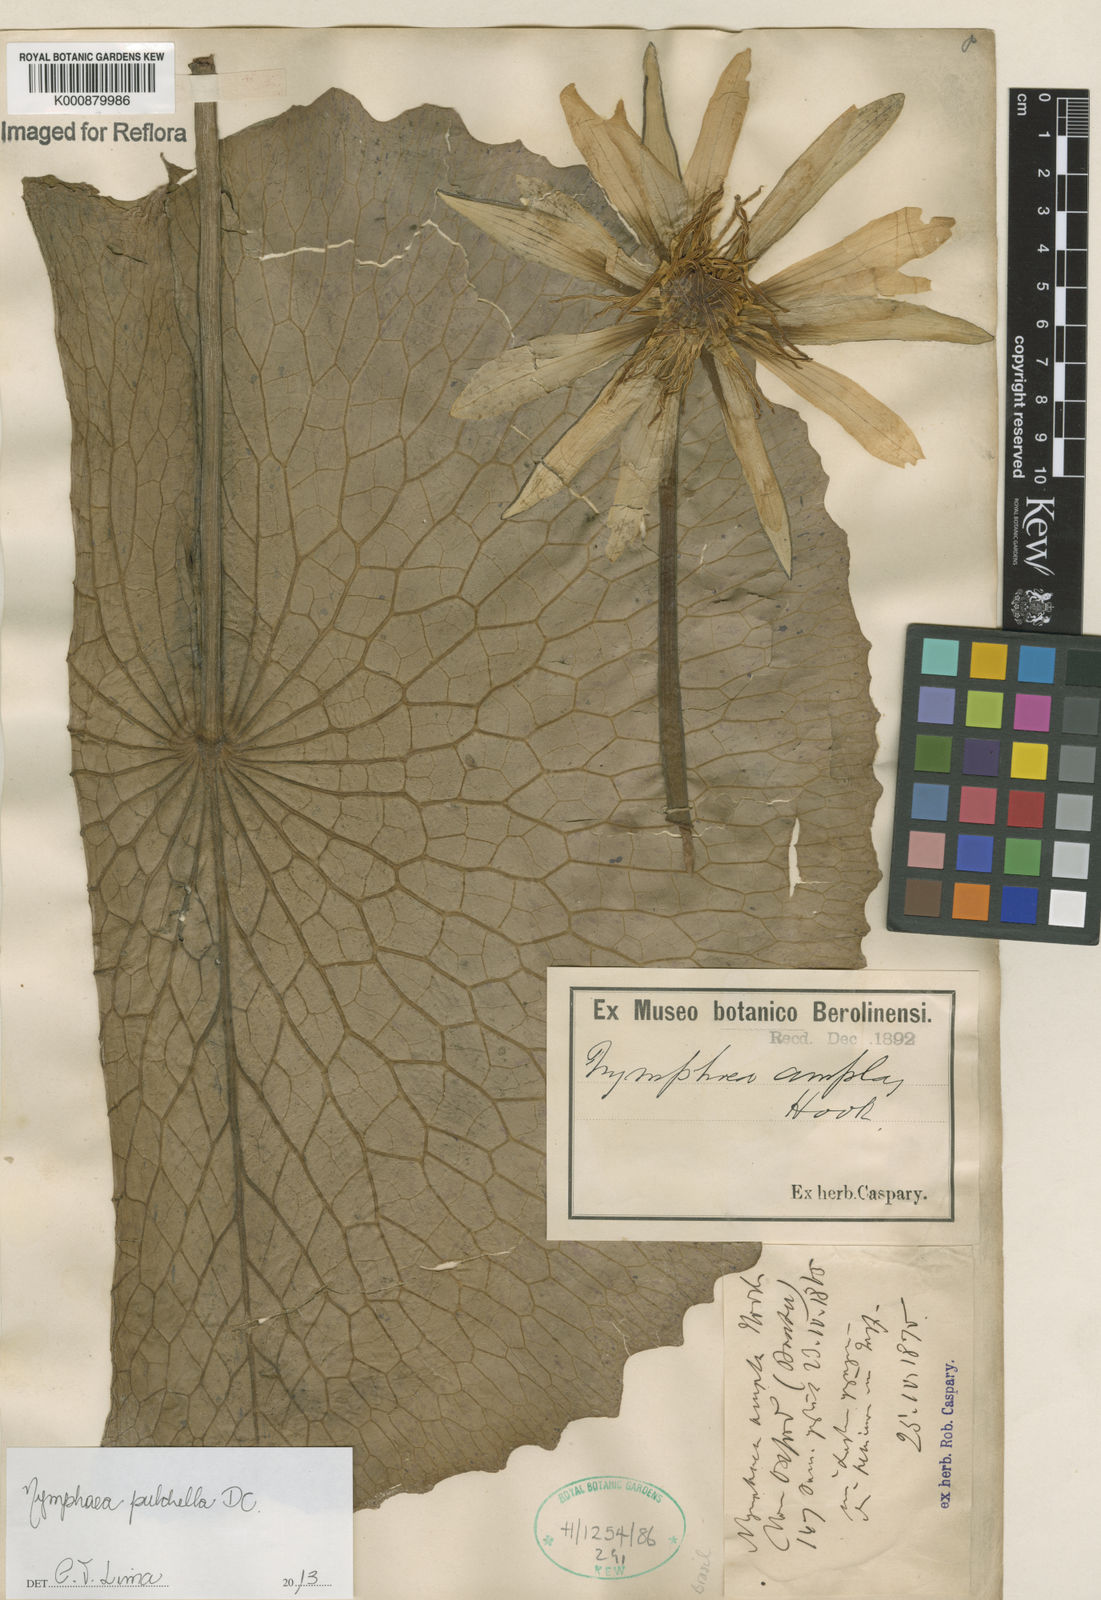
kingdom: Plantae
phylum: Tracheophyta
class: Magnoliopsida
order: Nymphaeales
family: Nymphaeaceae
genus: Nymphaea
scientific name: Nymphaea pulchella
